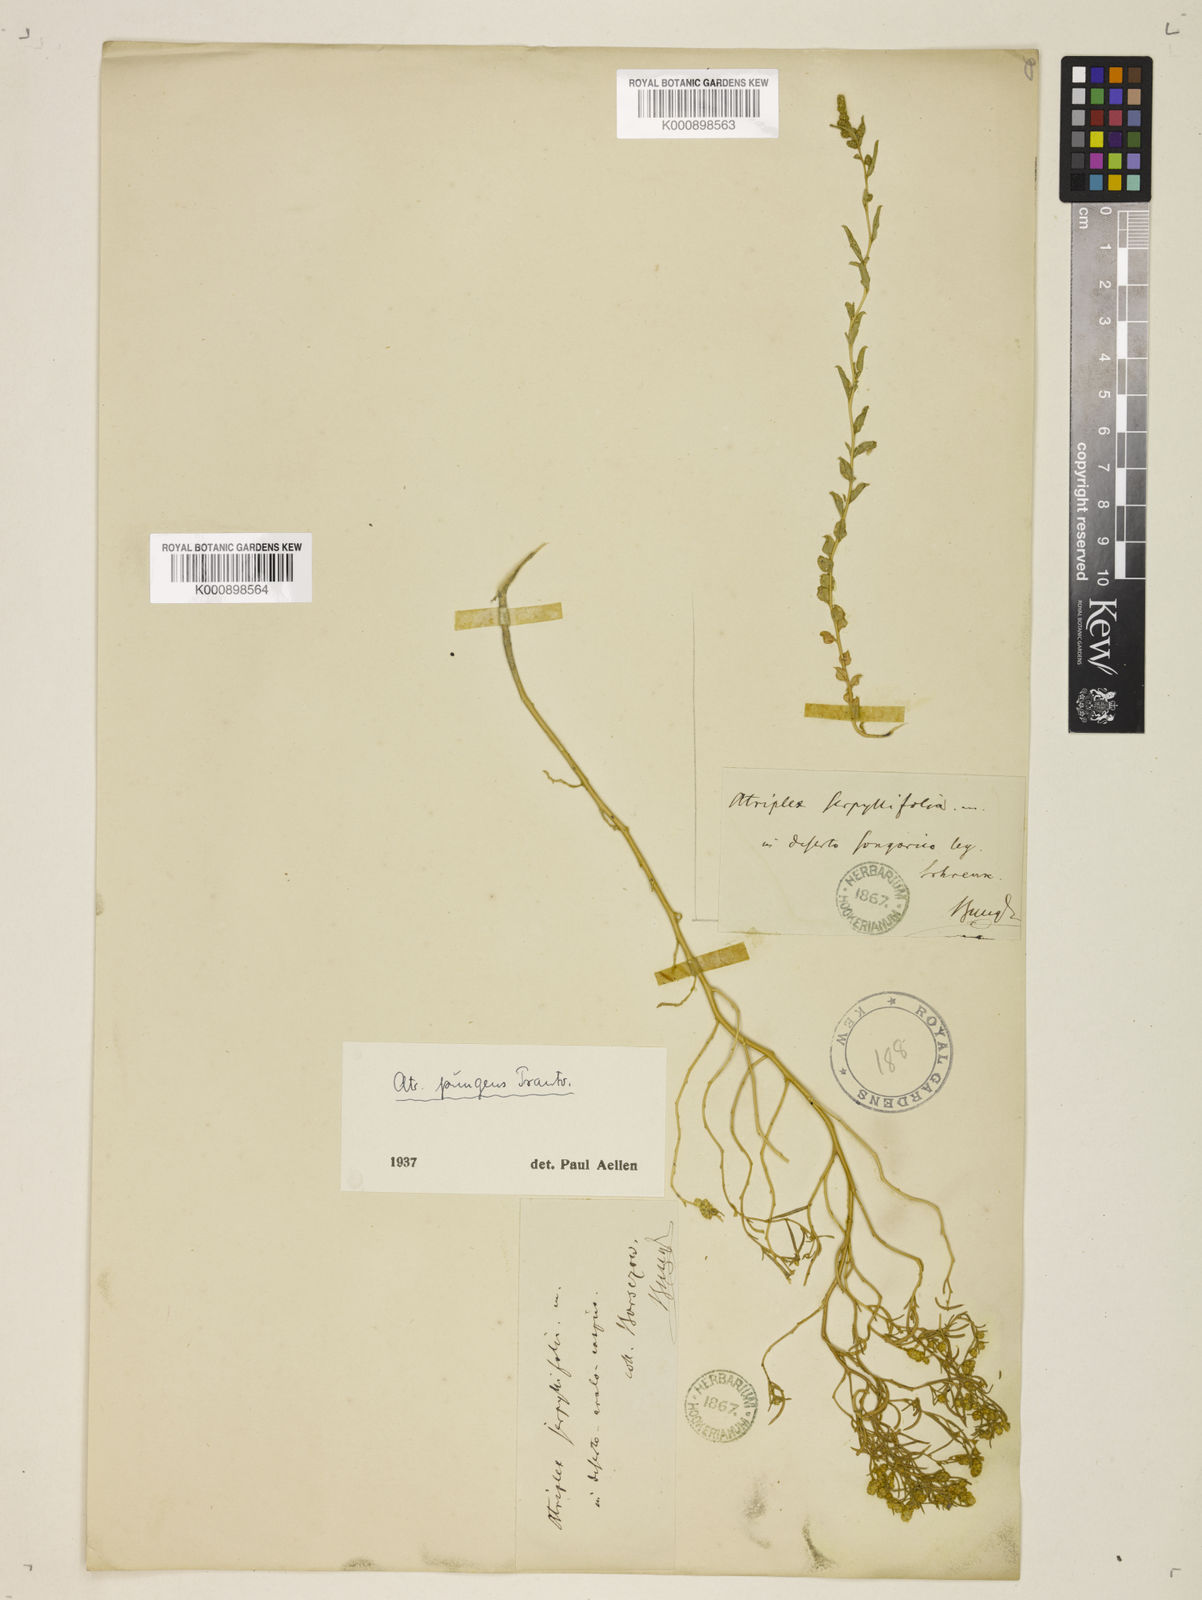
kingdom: Plantae
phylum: Tracheophyta
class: Magnoliopsida
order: Caryophyllales
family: Amaranthaceae
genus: Atriplex
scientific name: Atriplex pungens
